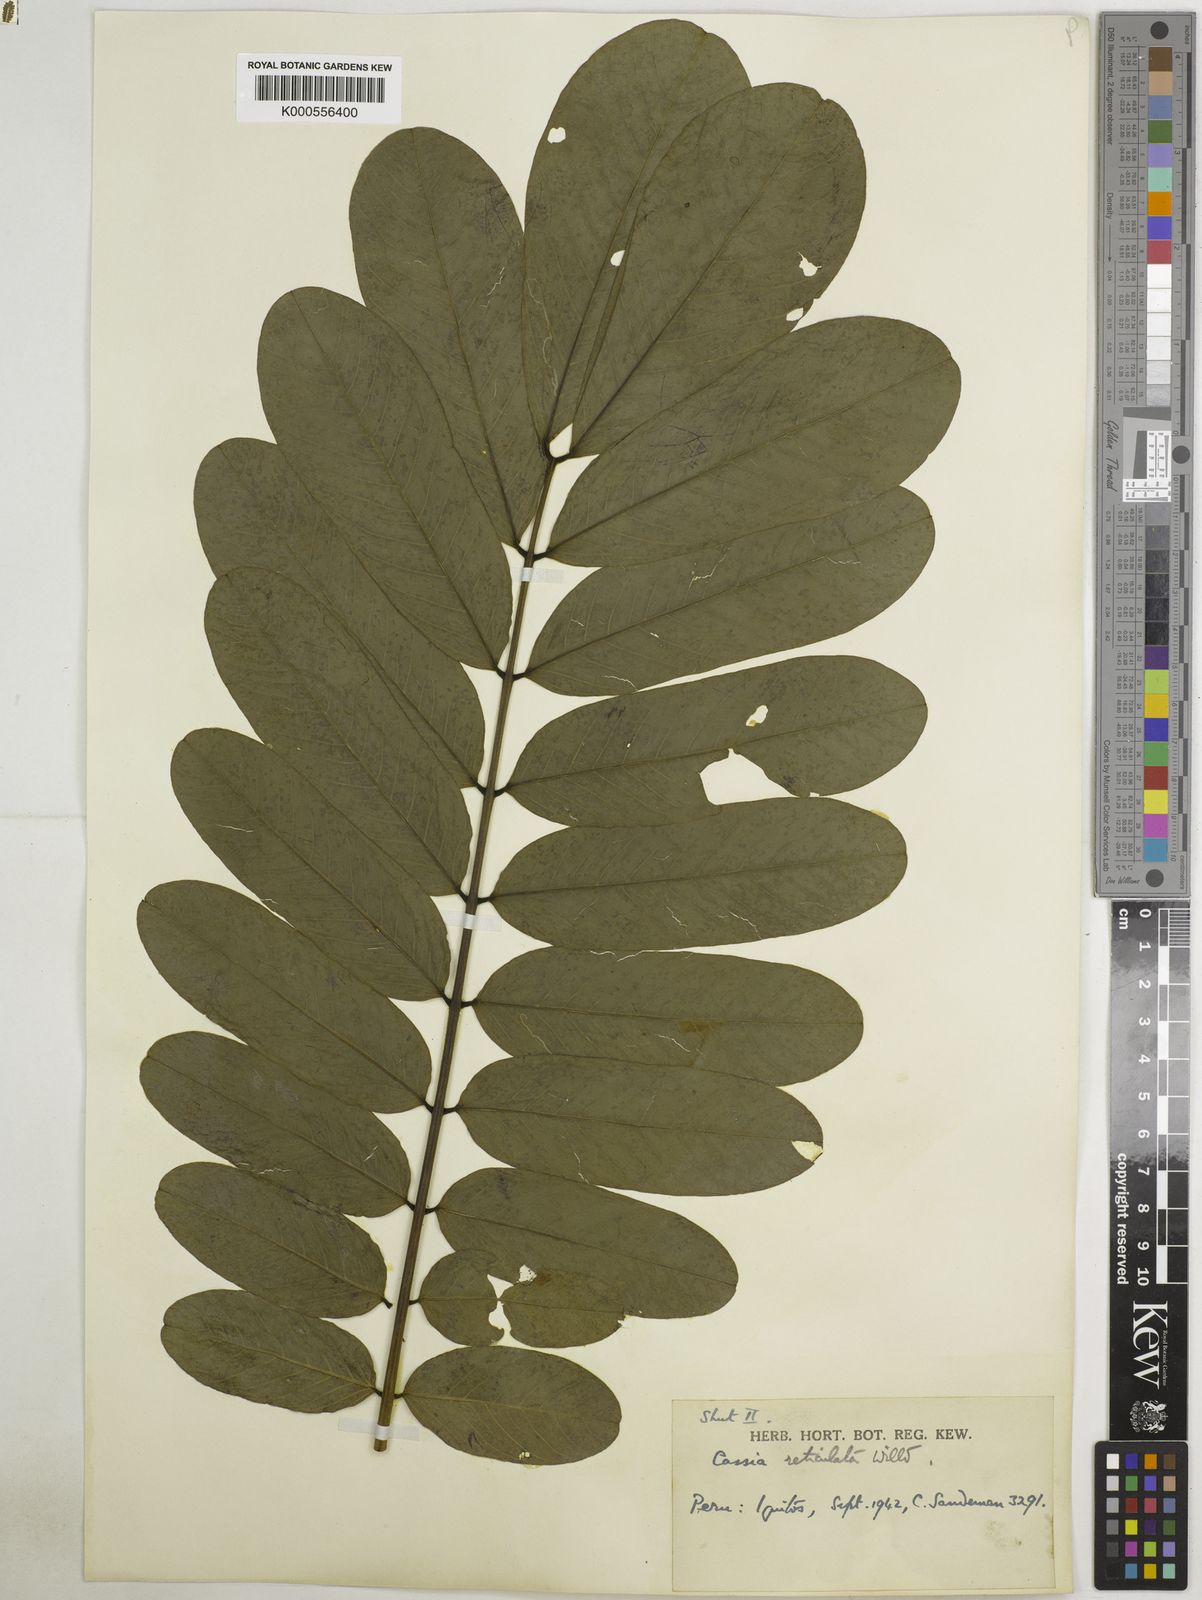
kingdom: Plantae
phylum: Tracheophyta
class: Magnoliopsida
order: Fabales
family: Fabaceae
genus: Senna
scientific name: Senna reticulata
